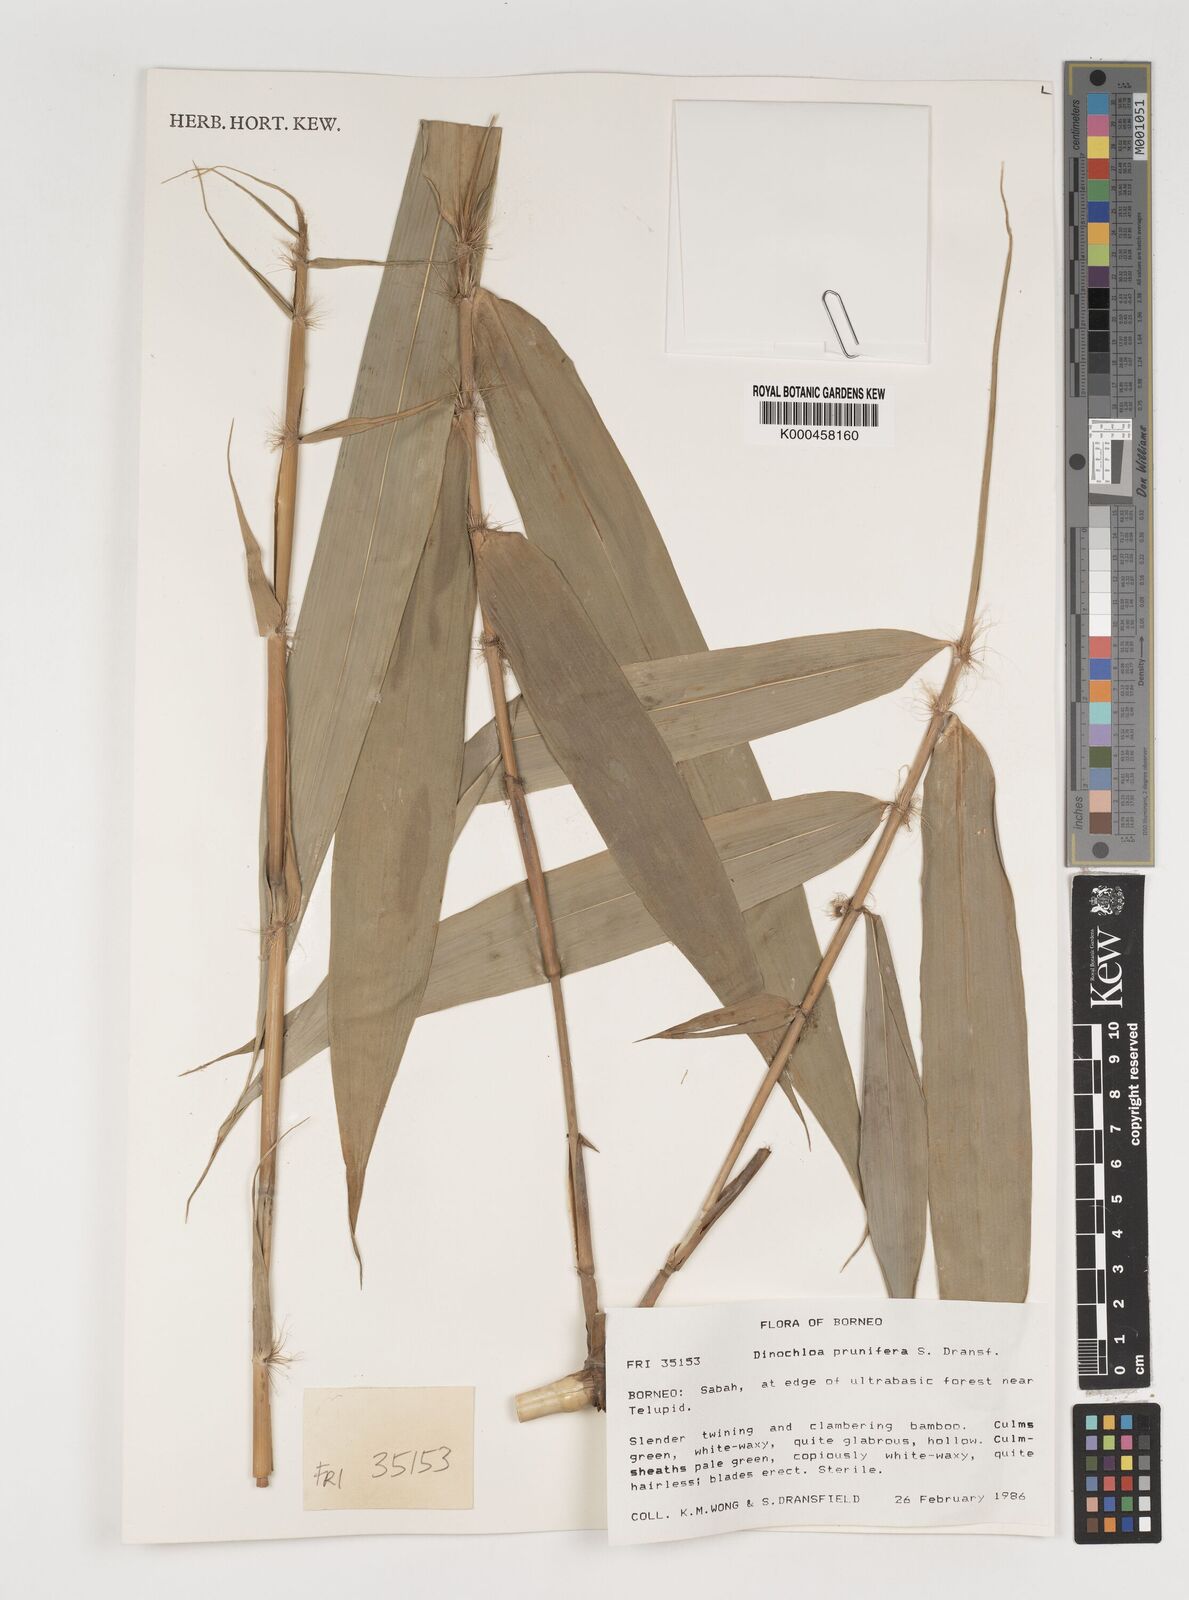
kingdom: Plantae
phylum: Tracheophyta
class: Liliopsida
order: Poales
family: Poaceae
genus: Dinochloa
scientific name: Dinochloa prunifera
